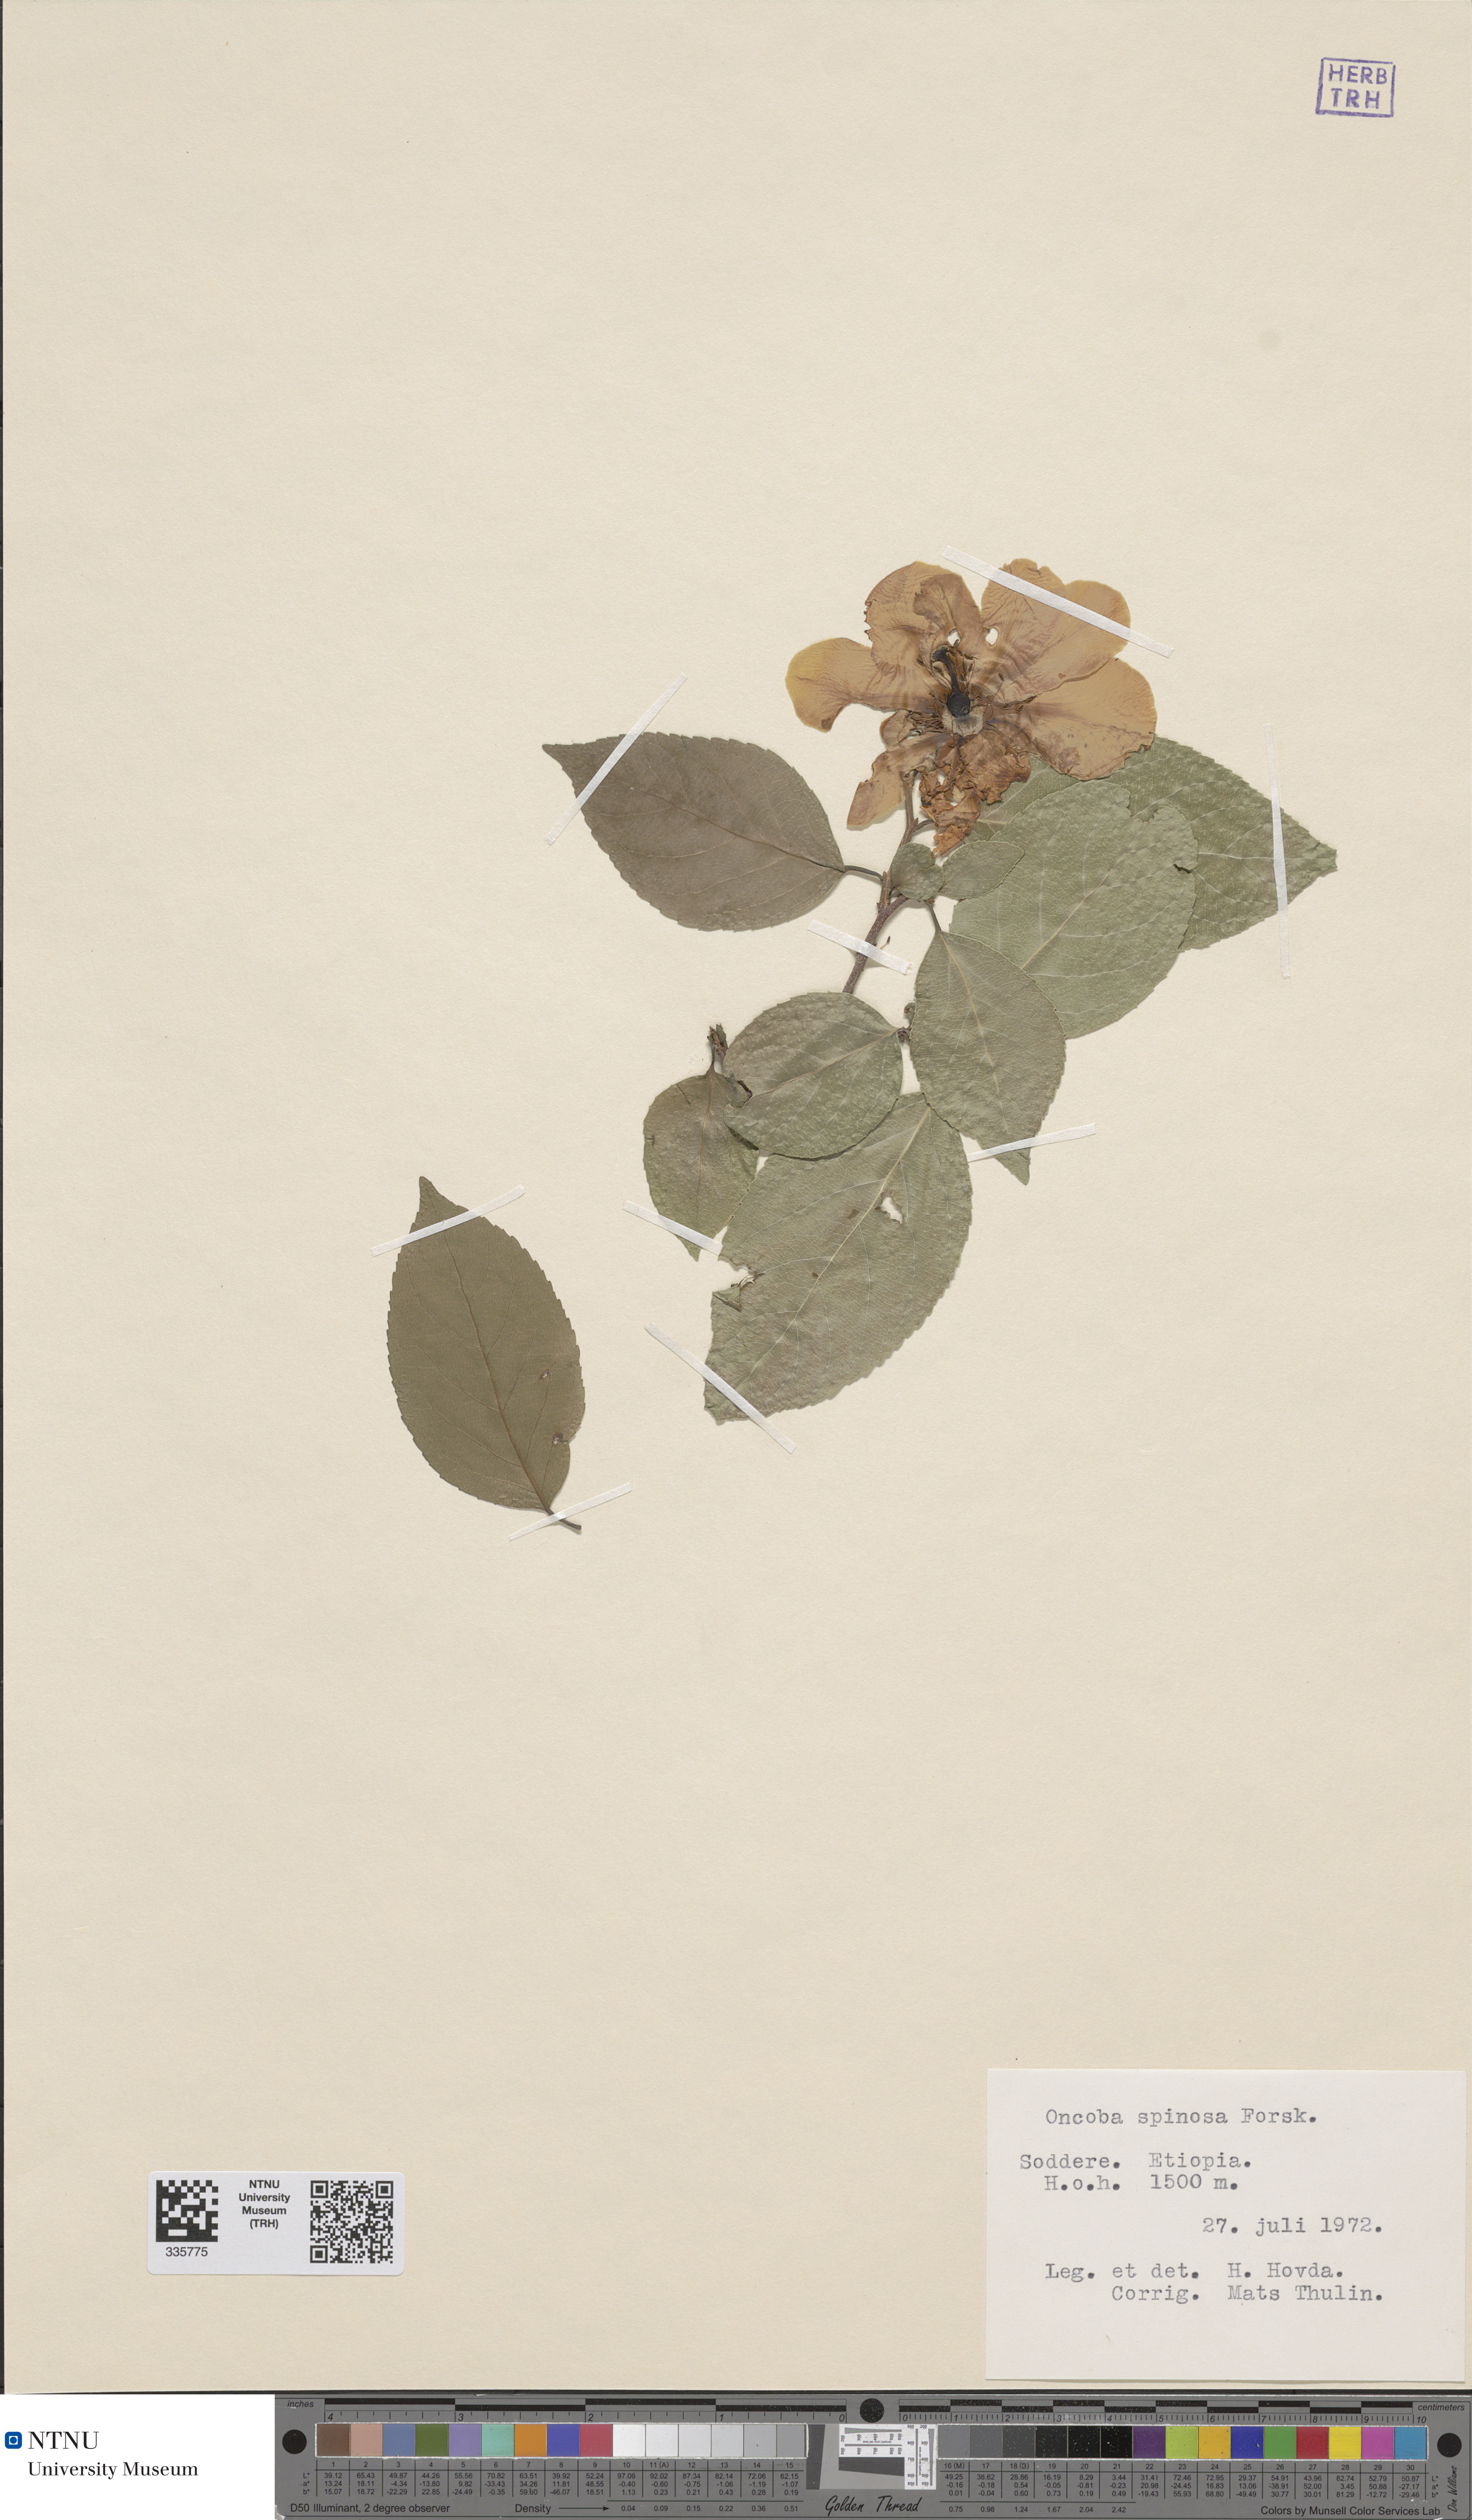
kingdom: Plantae
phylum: Tracheophyta
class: Magnoliopsida
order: Malpighiales
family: Salicaceae
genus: Oncoba
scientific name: Oncoba spinosa
